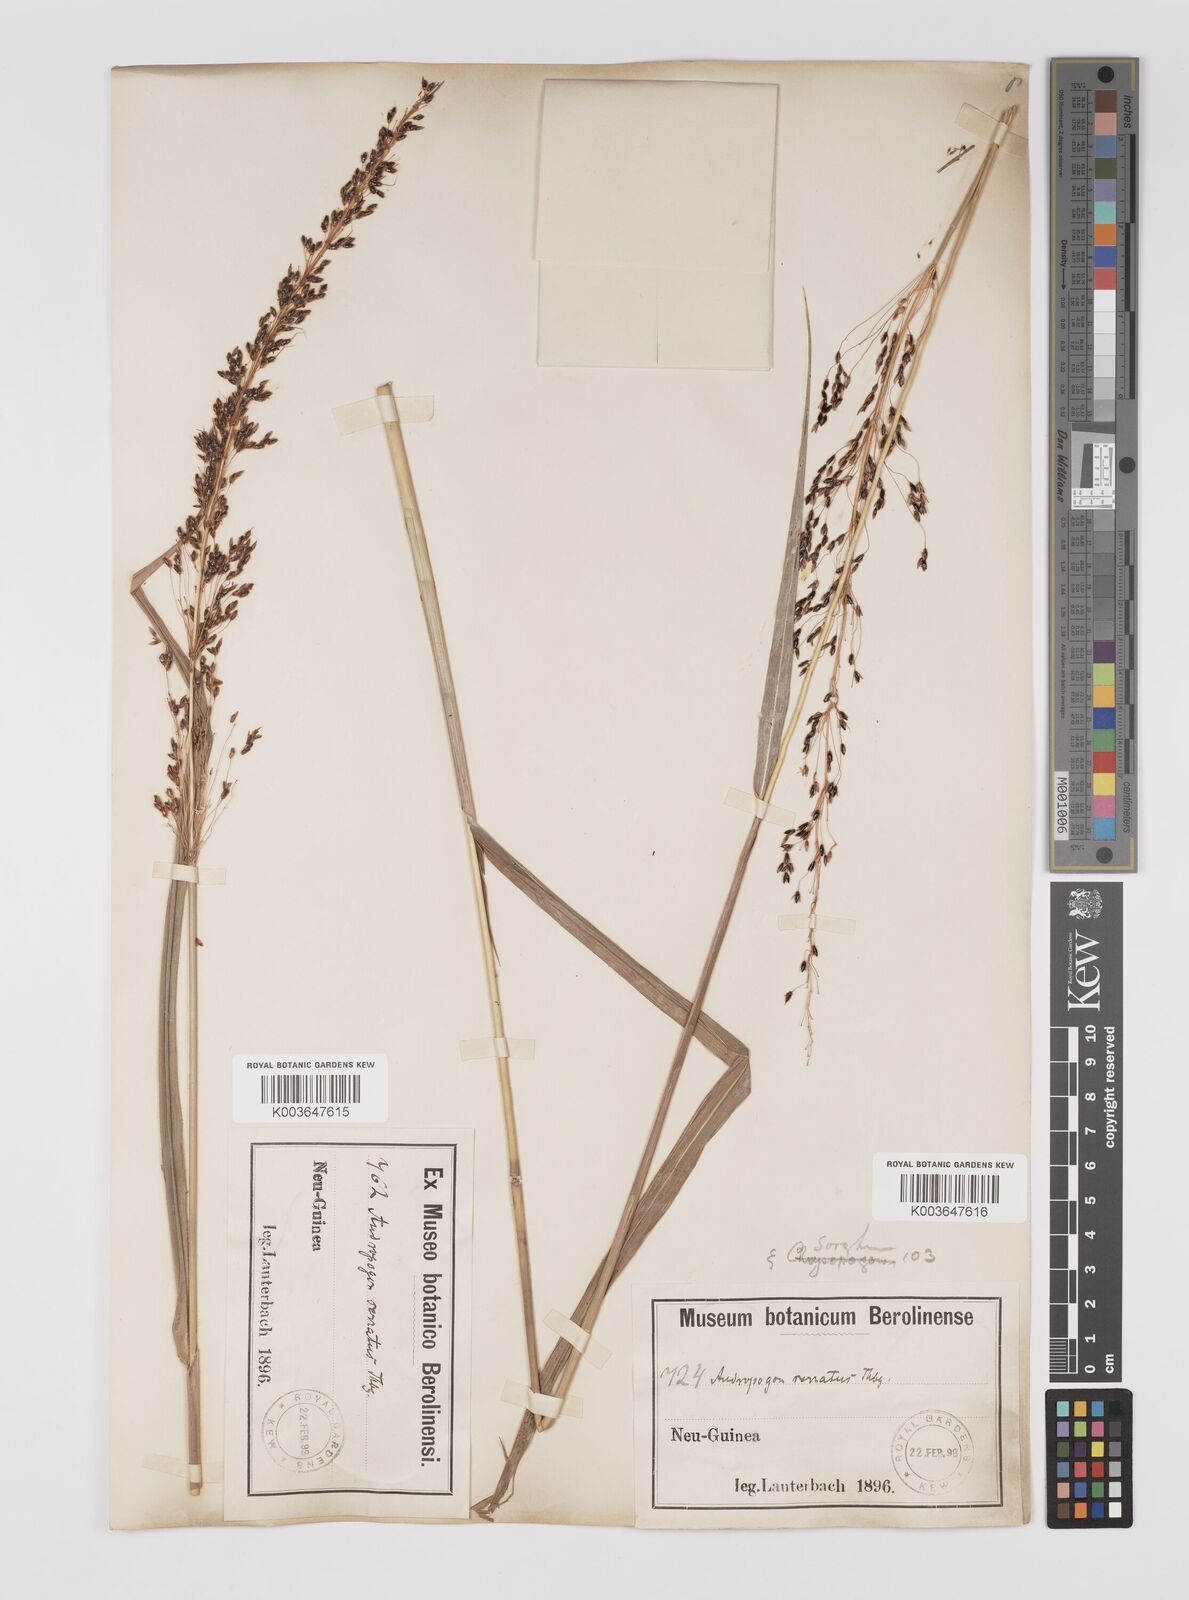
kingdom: Plantae
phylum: Tracheophyta
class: Liliopsida
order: Poales
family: Poaceae
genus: Sorghum
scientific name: Sorghum nitidum
